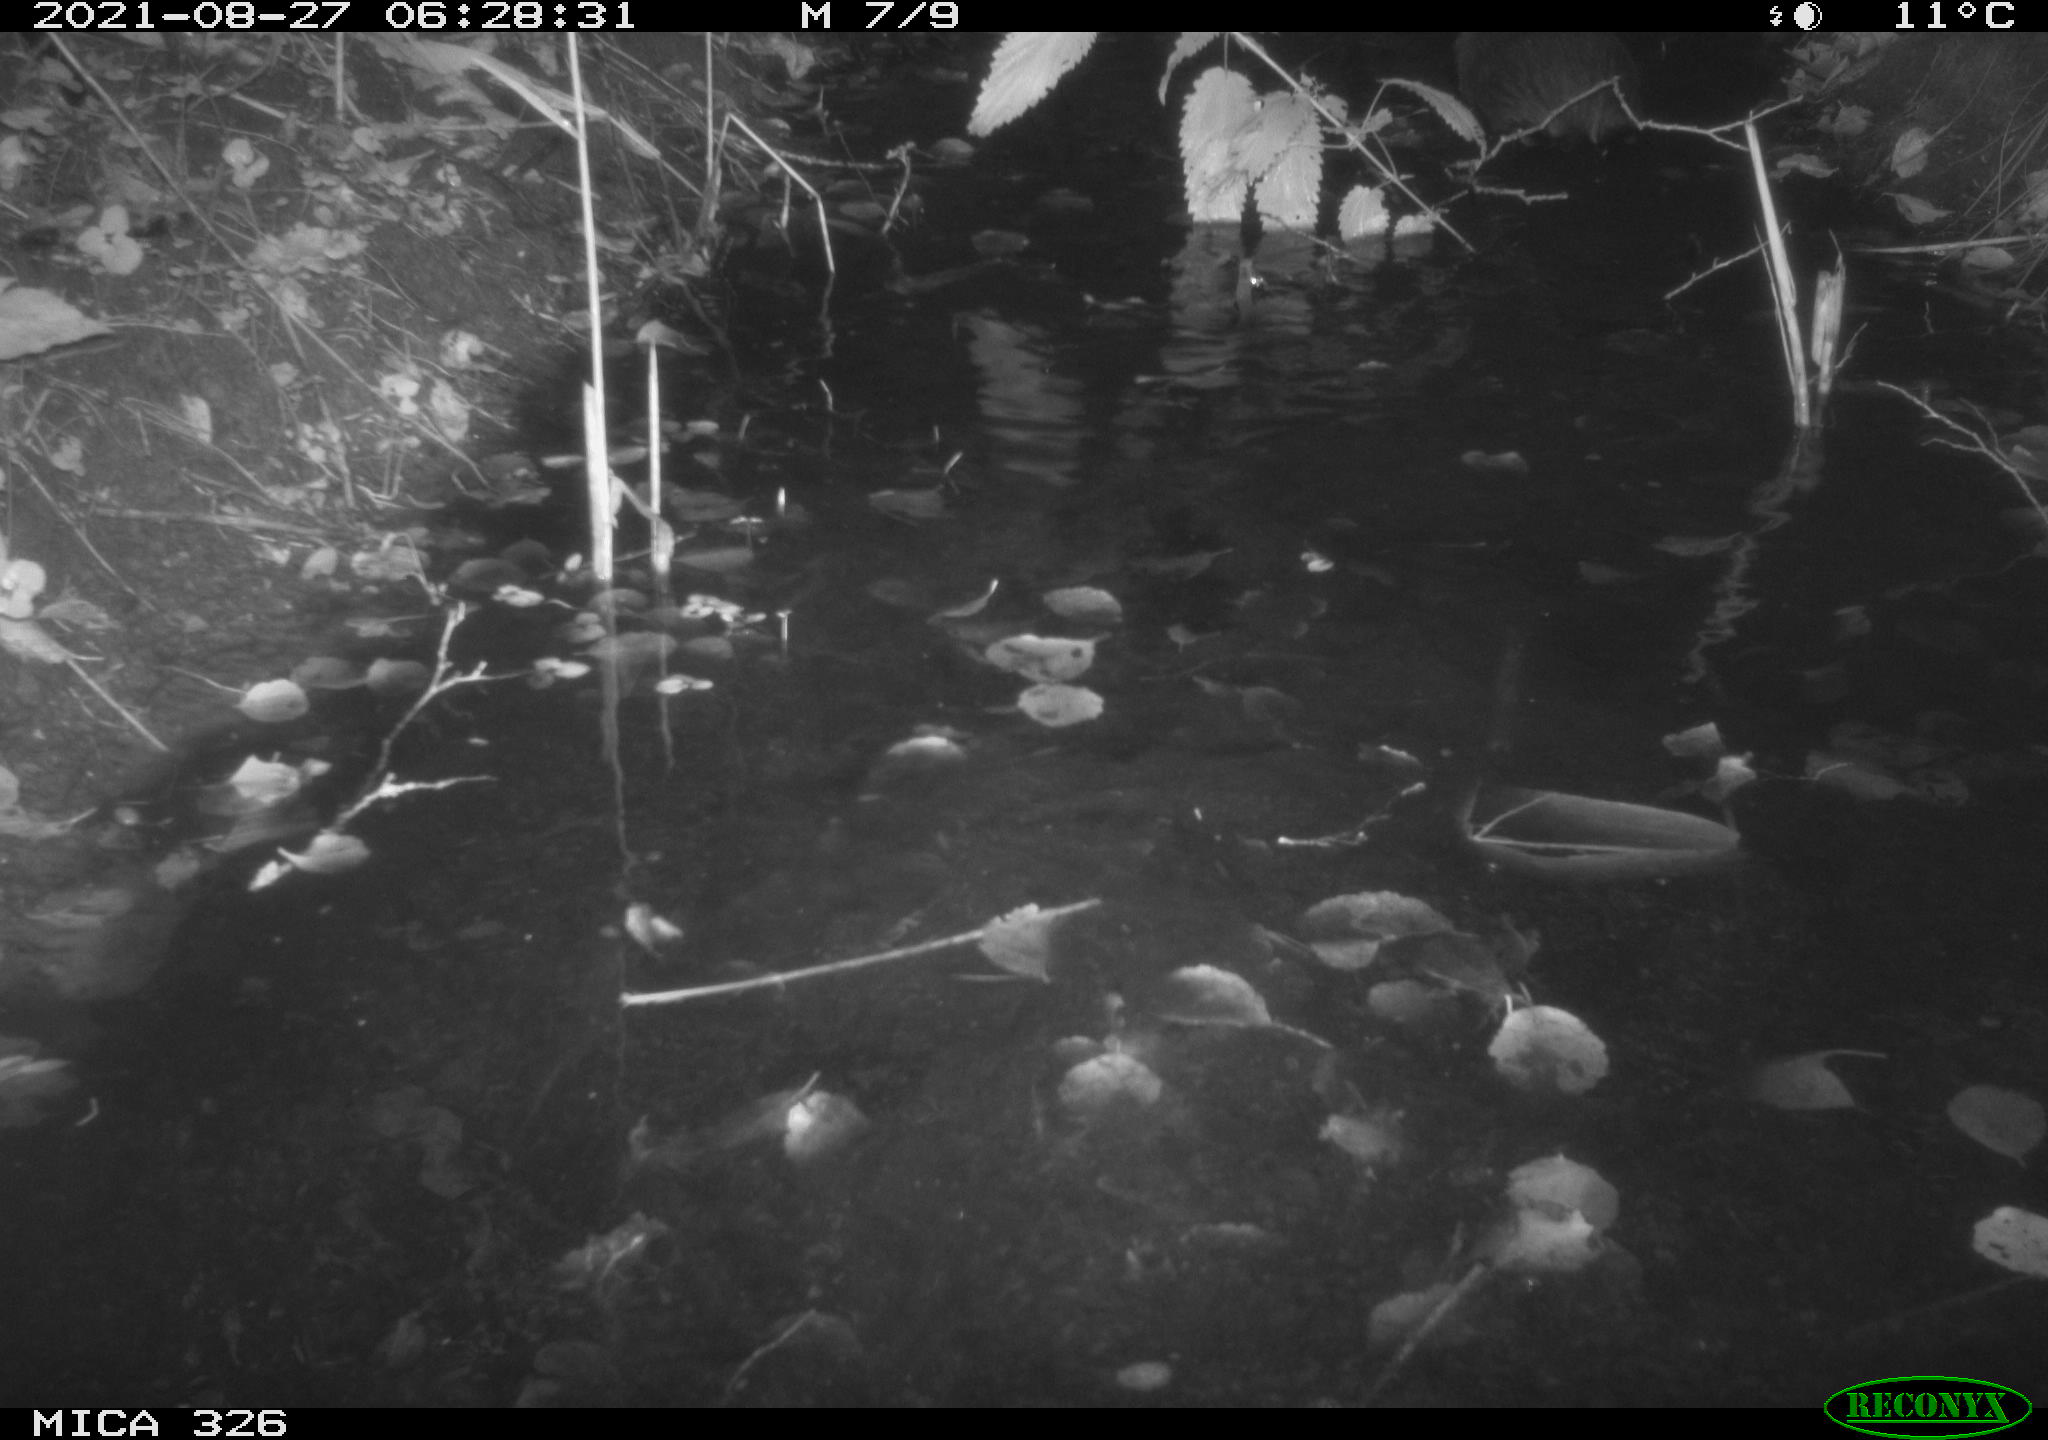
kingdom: Animalia
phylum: Chordata
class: Mammalia
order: Rodentia
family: Myocastoridae
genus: Myocastor
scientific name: Myocastor coypus
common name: Coypu
